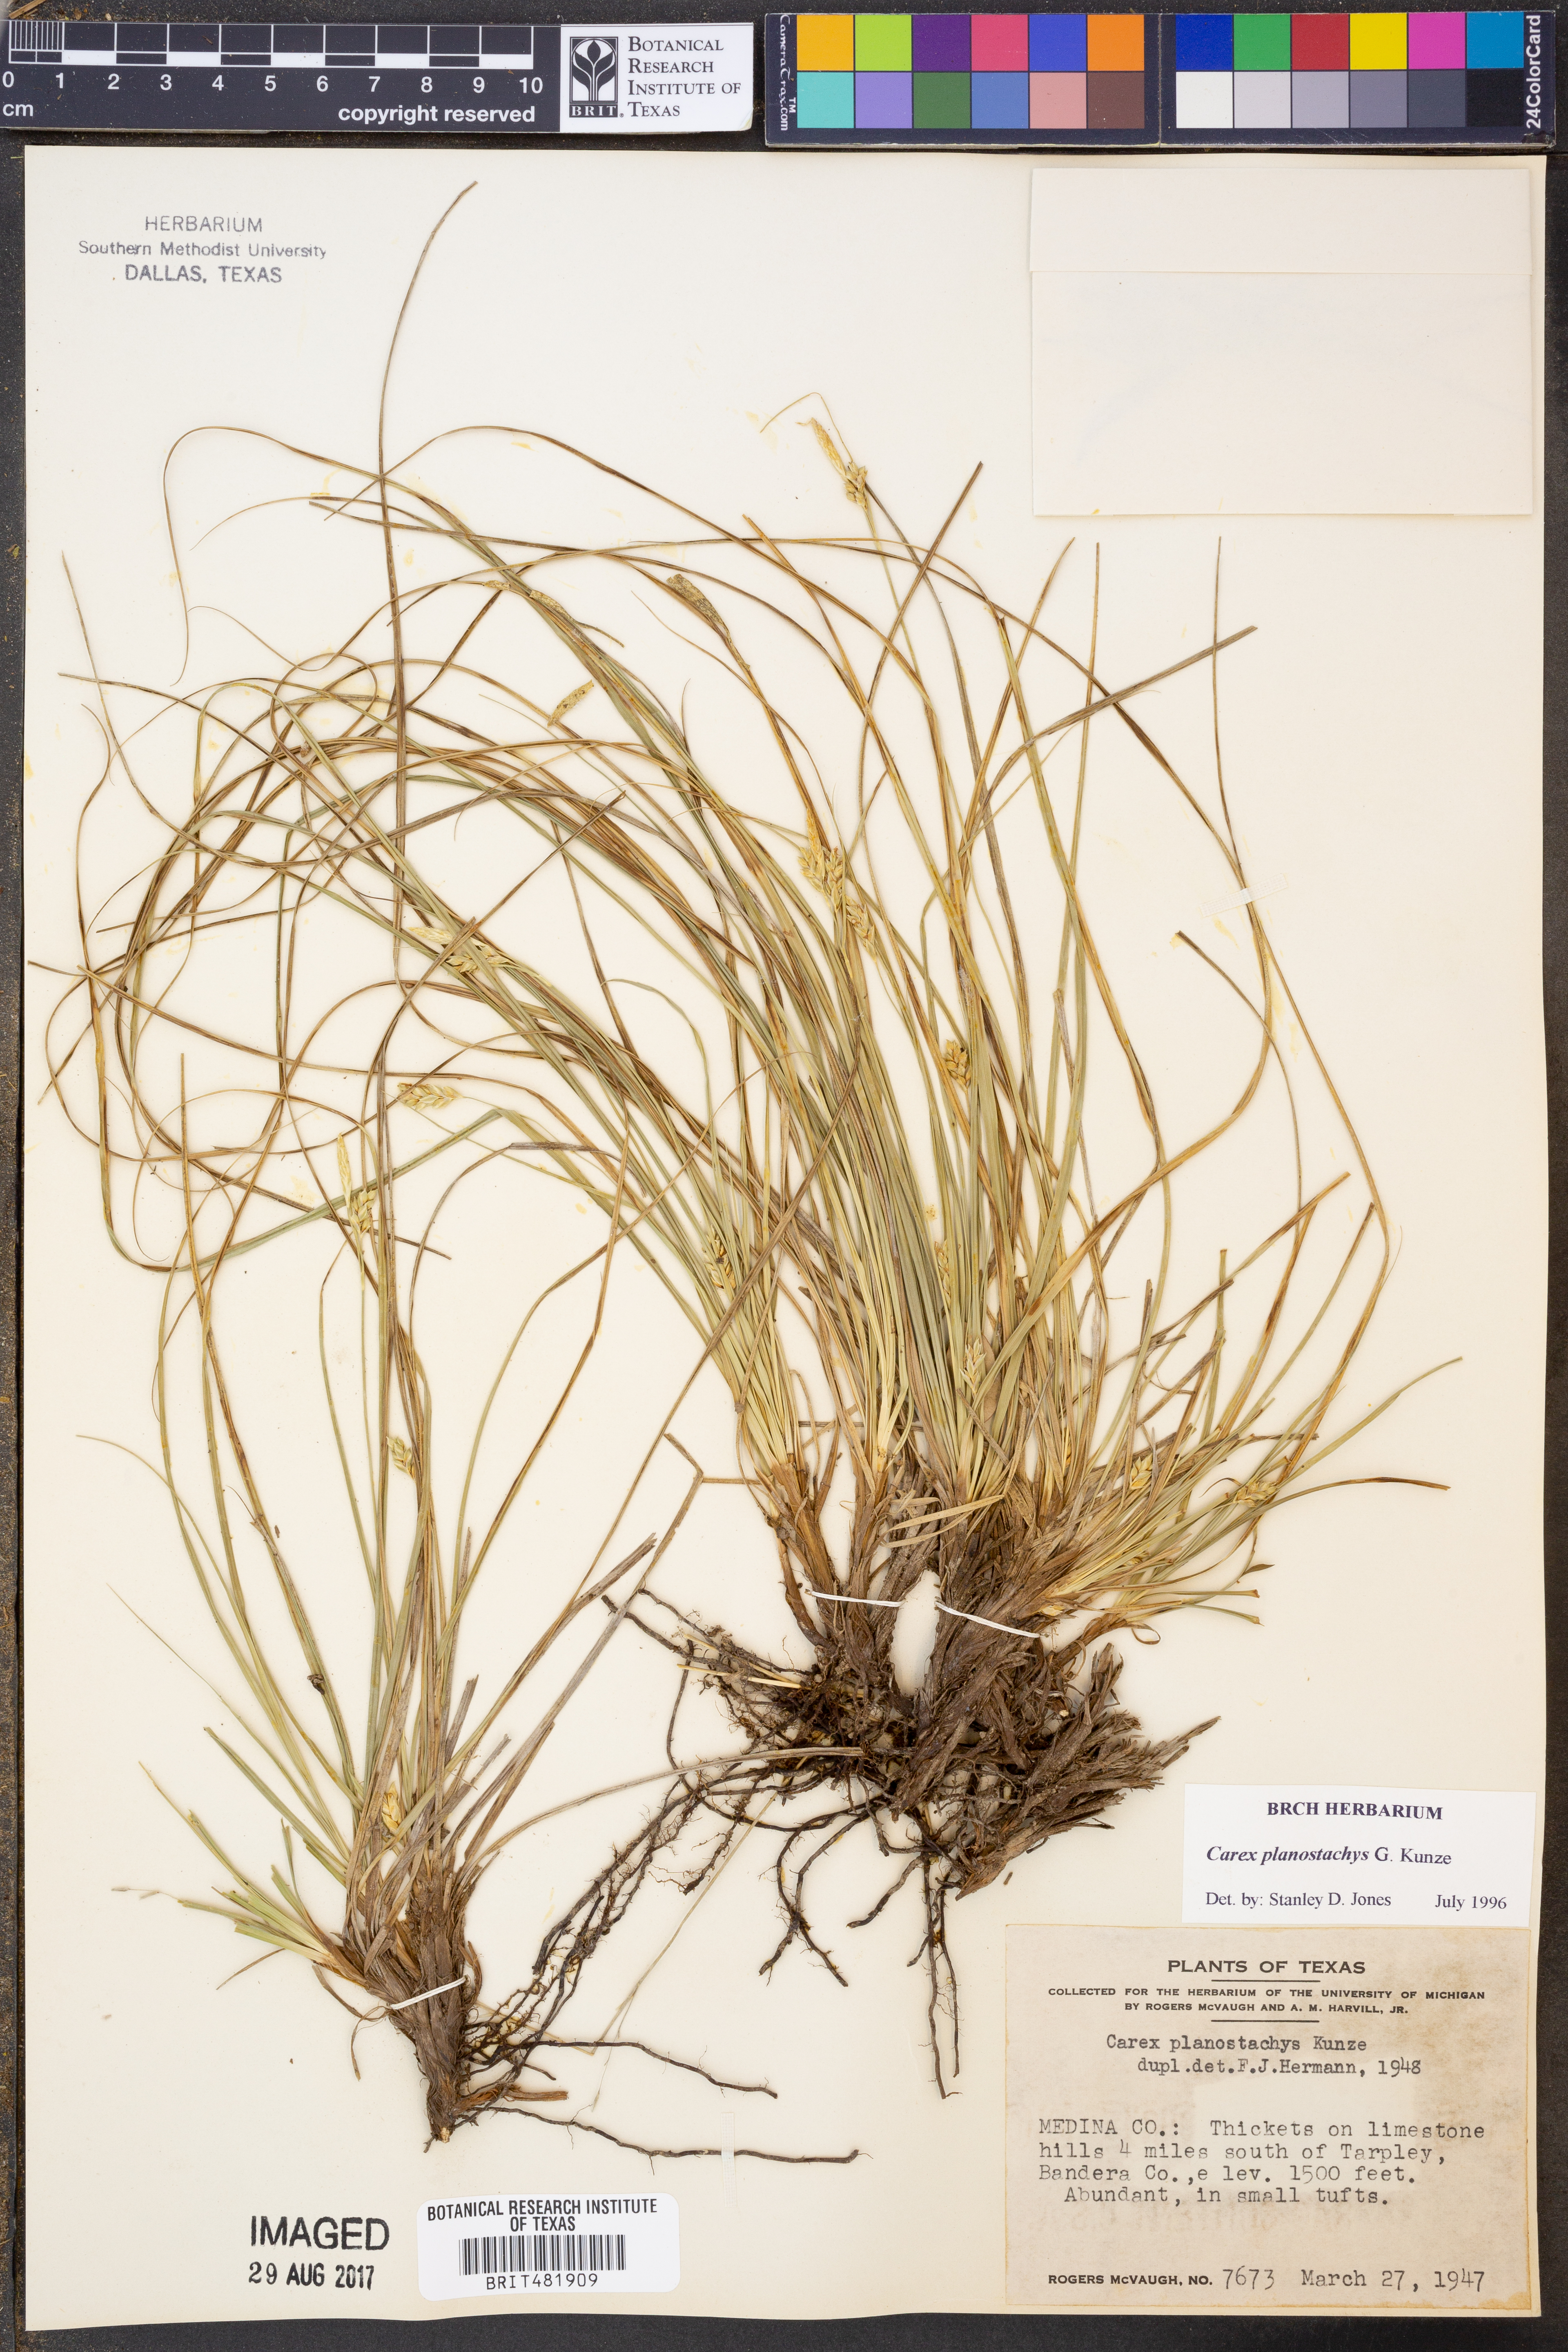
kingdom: Plantae
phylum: Tracheophyta
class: Liliopsida
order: Poales
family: Cyperaceae
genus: Carex
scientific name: Carex planostachys
